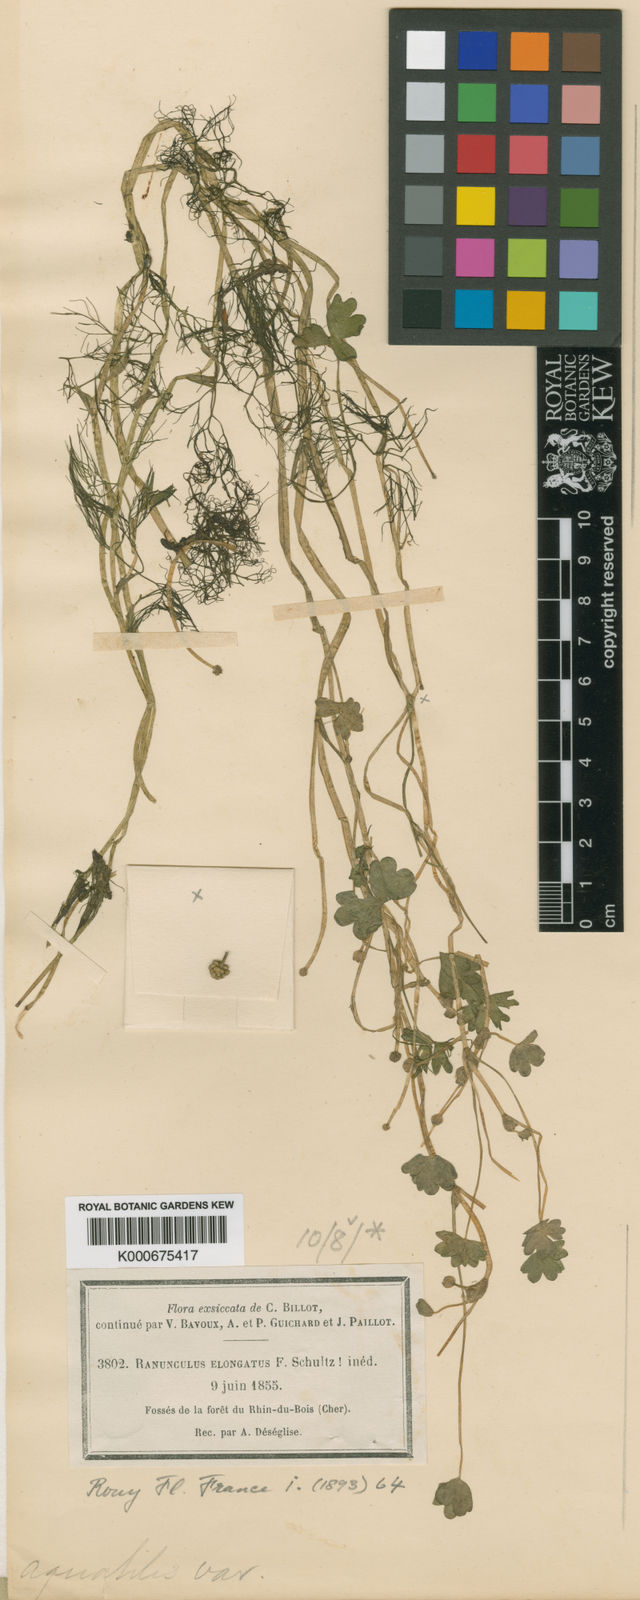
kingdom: Plantae
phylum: Tracheophyta
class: Magnoliopsida
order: Ranunculales
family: Ranunculaceae
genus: Ranunculus
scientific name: Ranunculus peltatus
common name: Pond water-crowfoot
